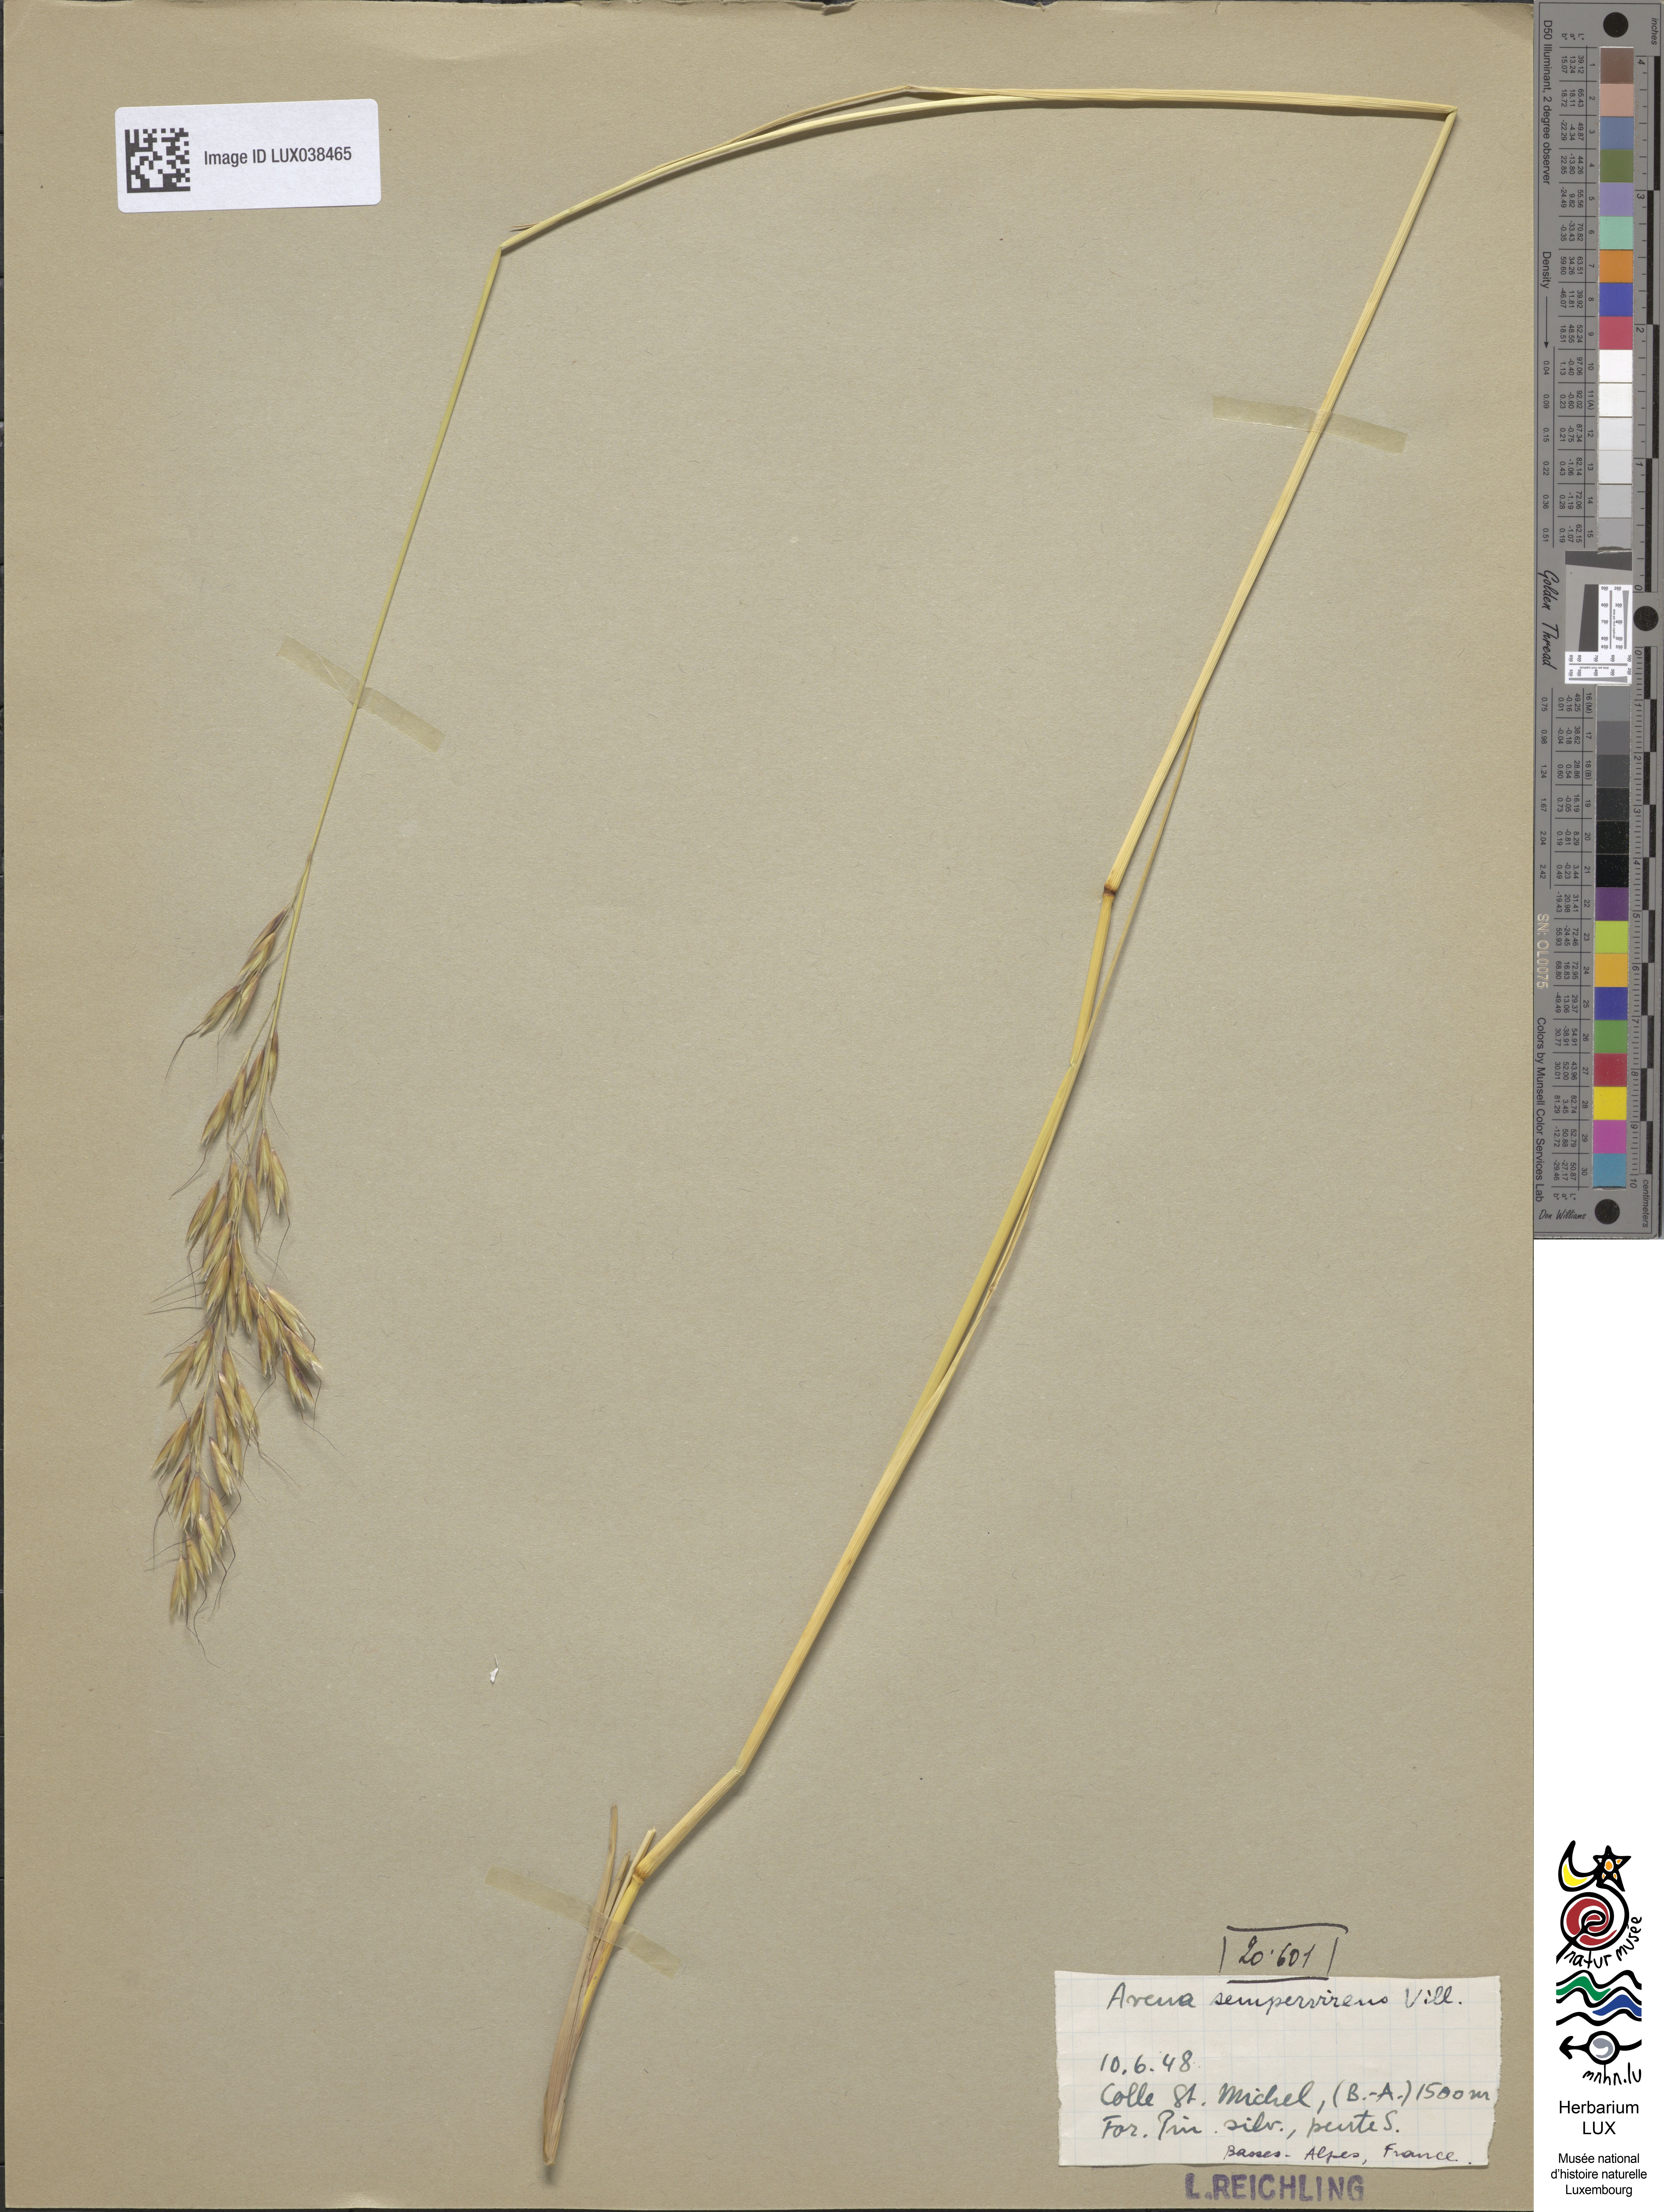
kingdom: Plantae
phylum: Tracheophyta
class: Liliopsida
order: Poales
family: Poaceae
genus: Helictotrichon
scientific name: Helictotrichon sempervirens
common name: Blue oat-grass
